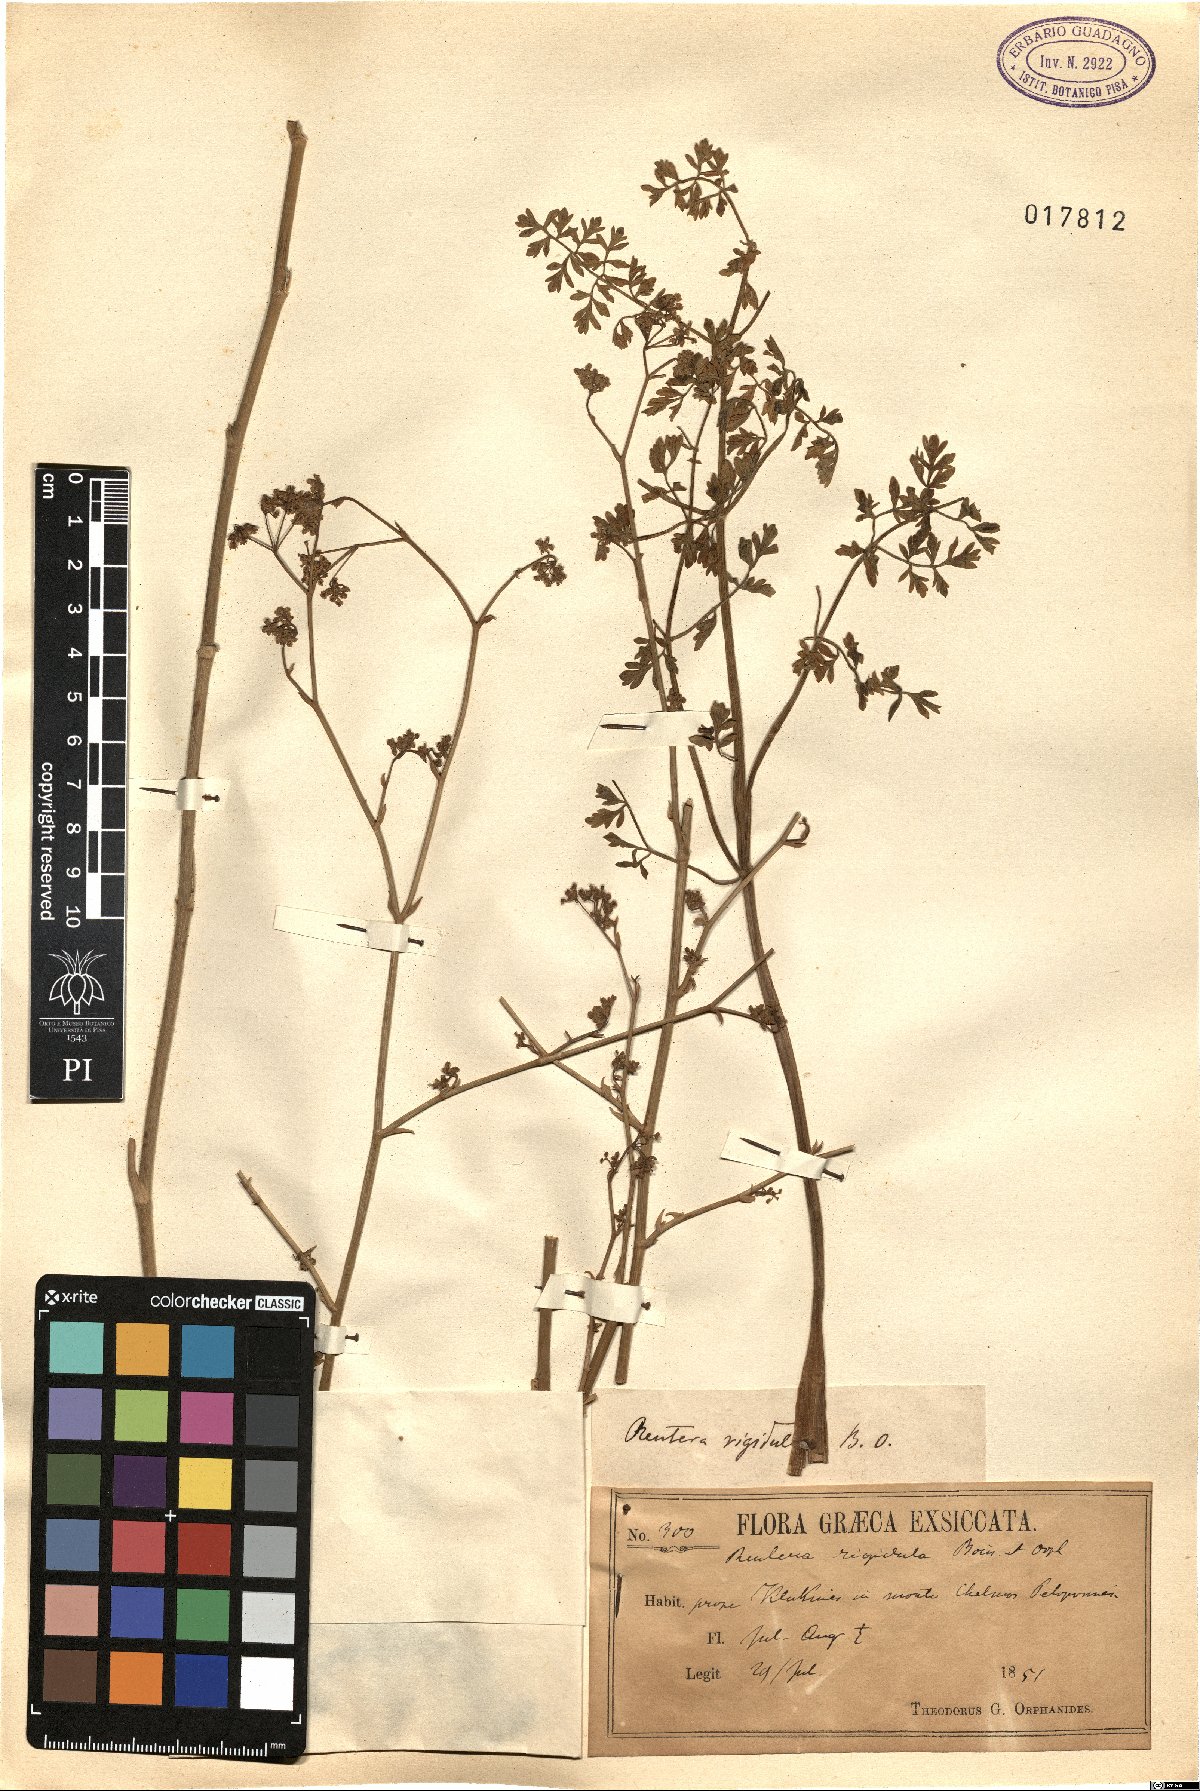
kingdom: Plantae
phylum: Tracheophyta
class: Magnoliopsida
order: Apiales
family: Apiaceae
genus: Pimpinella
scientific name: Pimpinella rigidula
